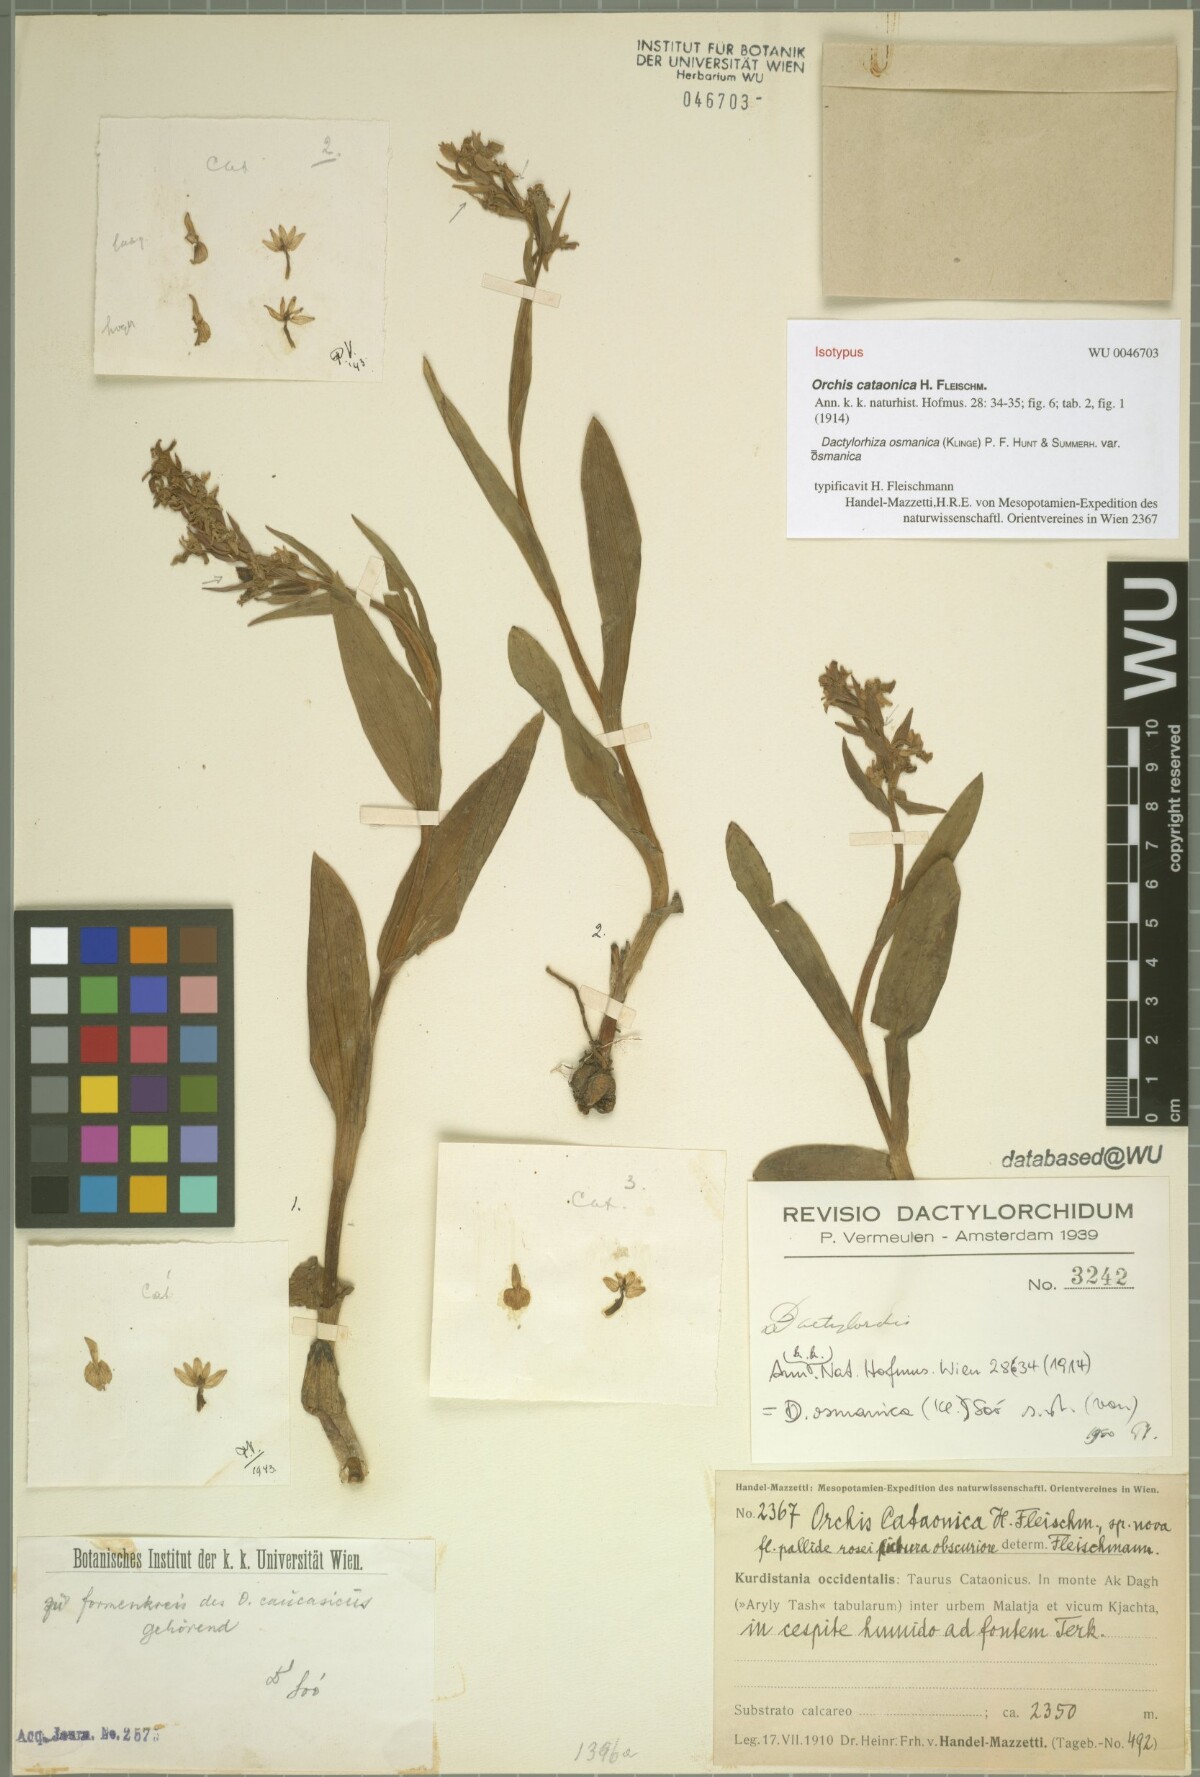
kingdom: Plantae
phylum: Tracheophyta
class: Liliopsida
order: Asparagales
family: Orchidaceae
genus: Dactylorhiza
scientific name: Dactylorhiza incarnata
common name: Early marsh-orchid
